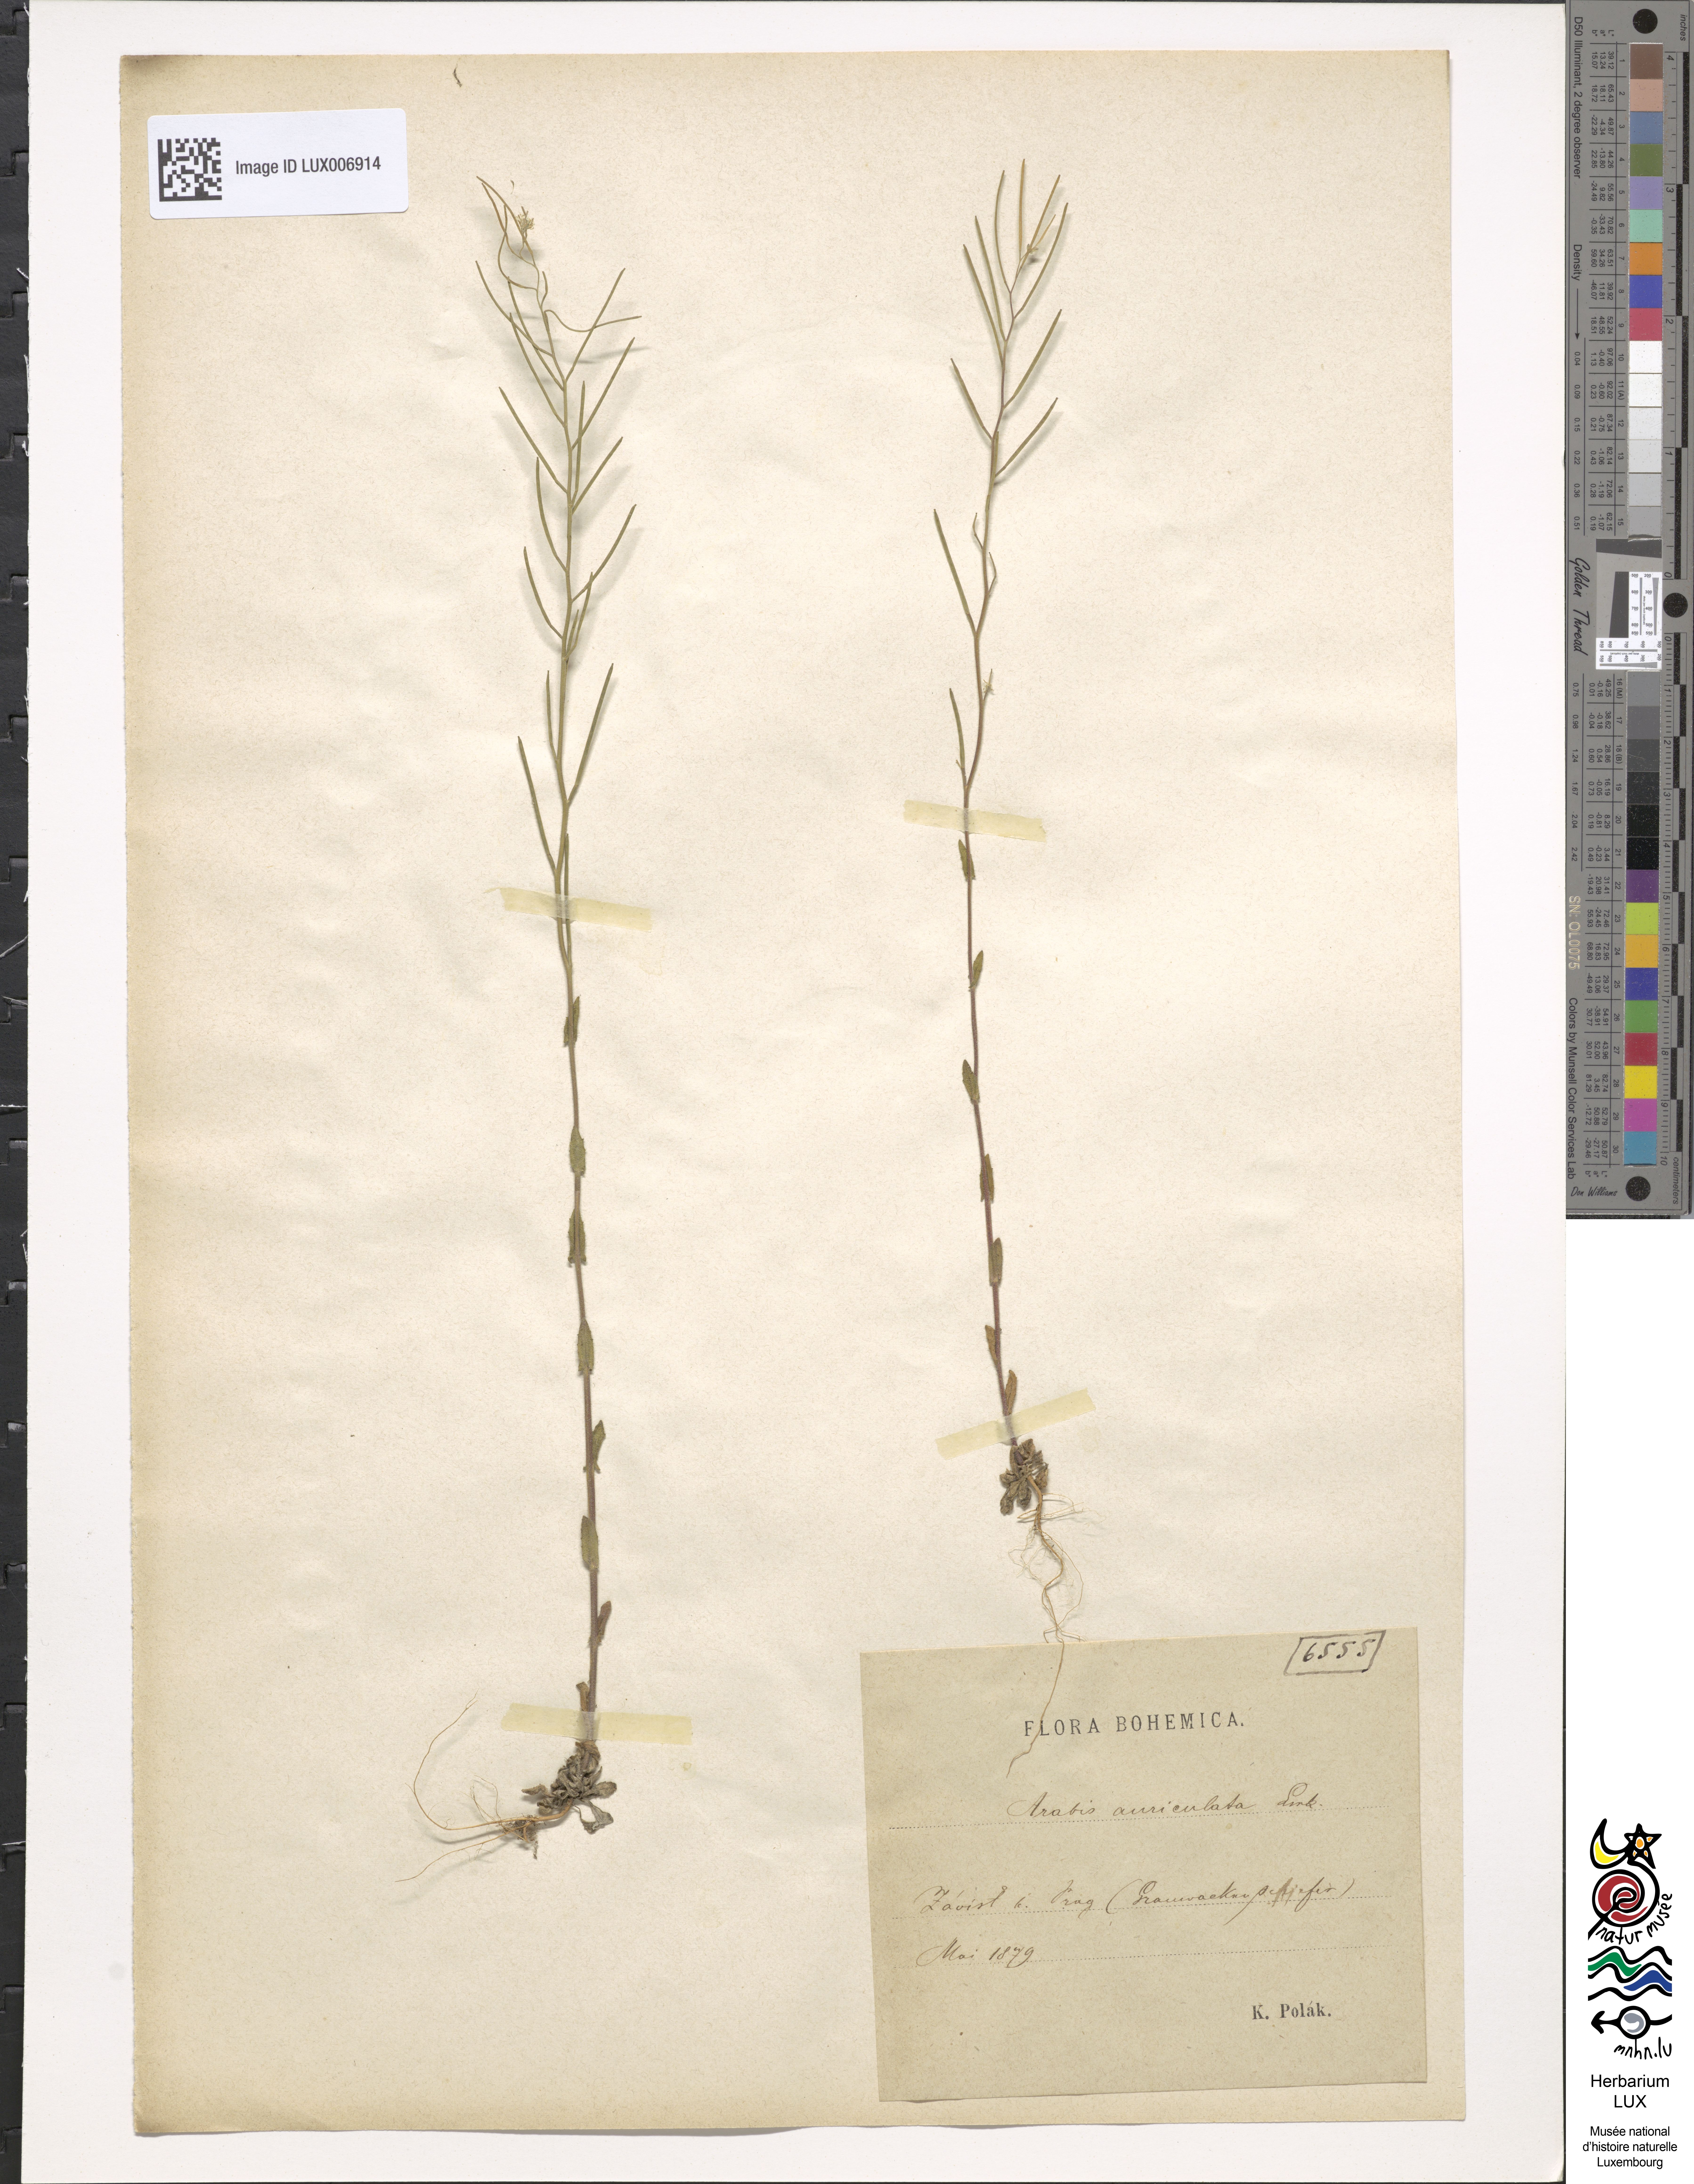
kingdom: Plantae
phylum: Tracheophyta
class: Magnoliopsida
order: Brassicales
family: Brassicaceae
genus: Arabis
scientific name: Arabis auriculata
